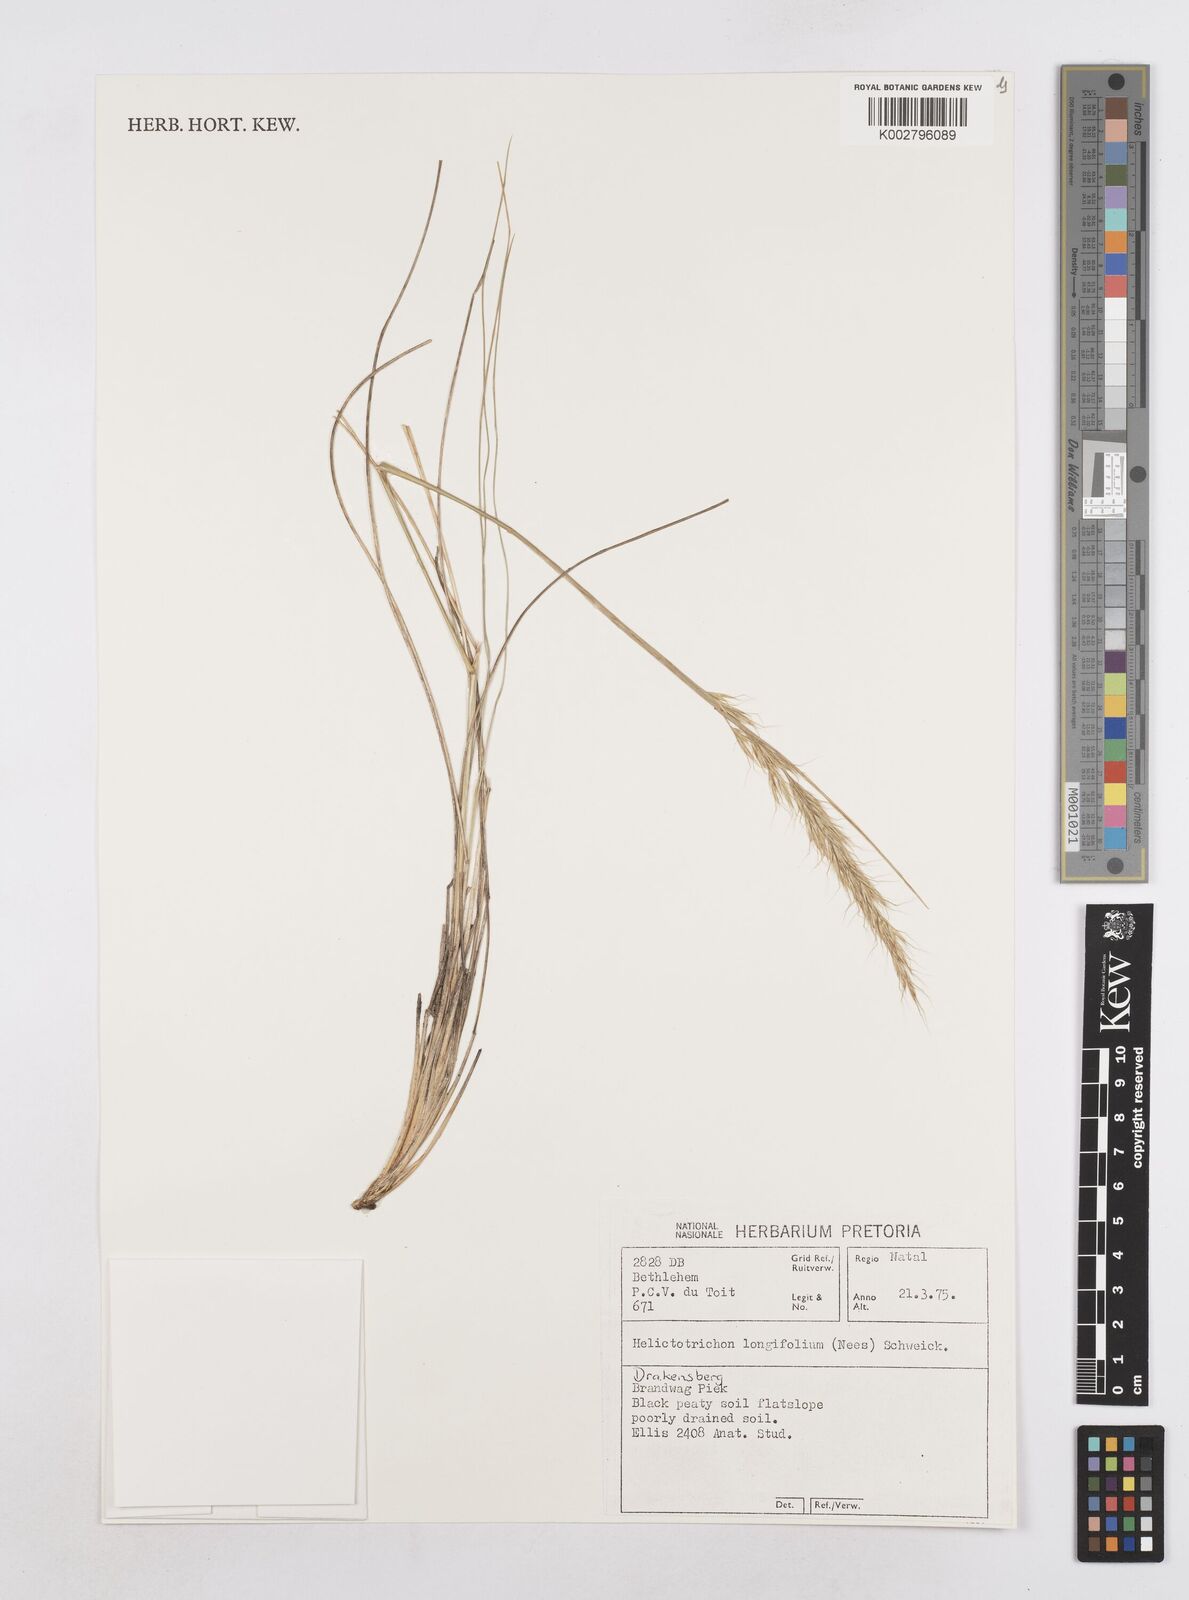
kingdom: Plantae
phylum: Tracheophyta
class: Liliopsida
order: Poales
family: Poaceae
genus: Trisetopsis
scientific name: Trisetopsis longifolia
